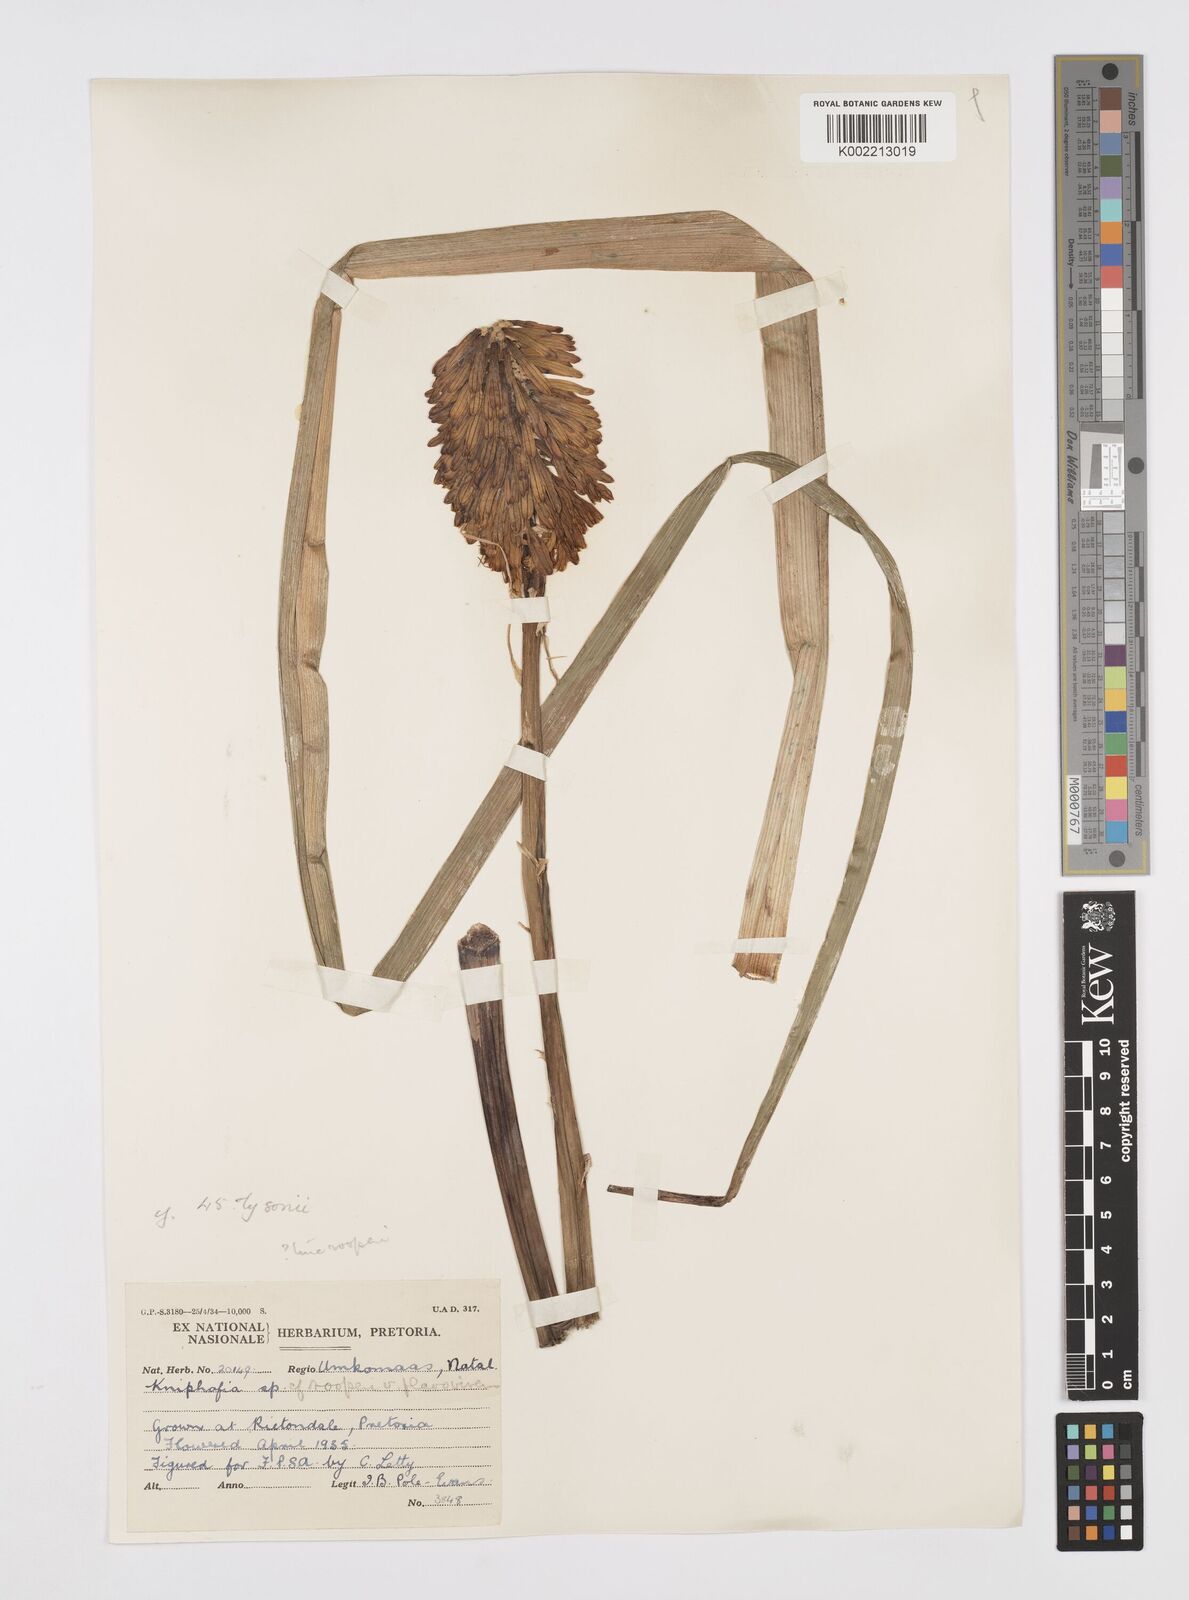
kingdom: Plantae
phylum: Tracheophyta
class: Liliopsida
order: Asparagales
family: Asphodelaceae
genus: Kniphofia
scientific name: Kniphofia tysonii
